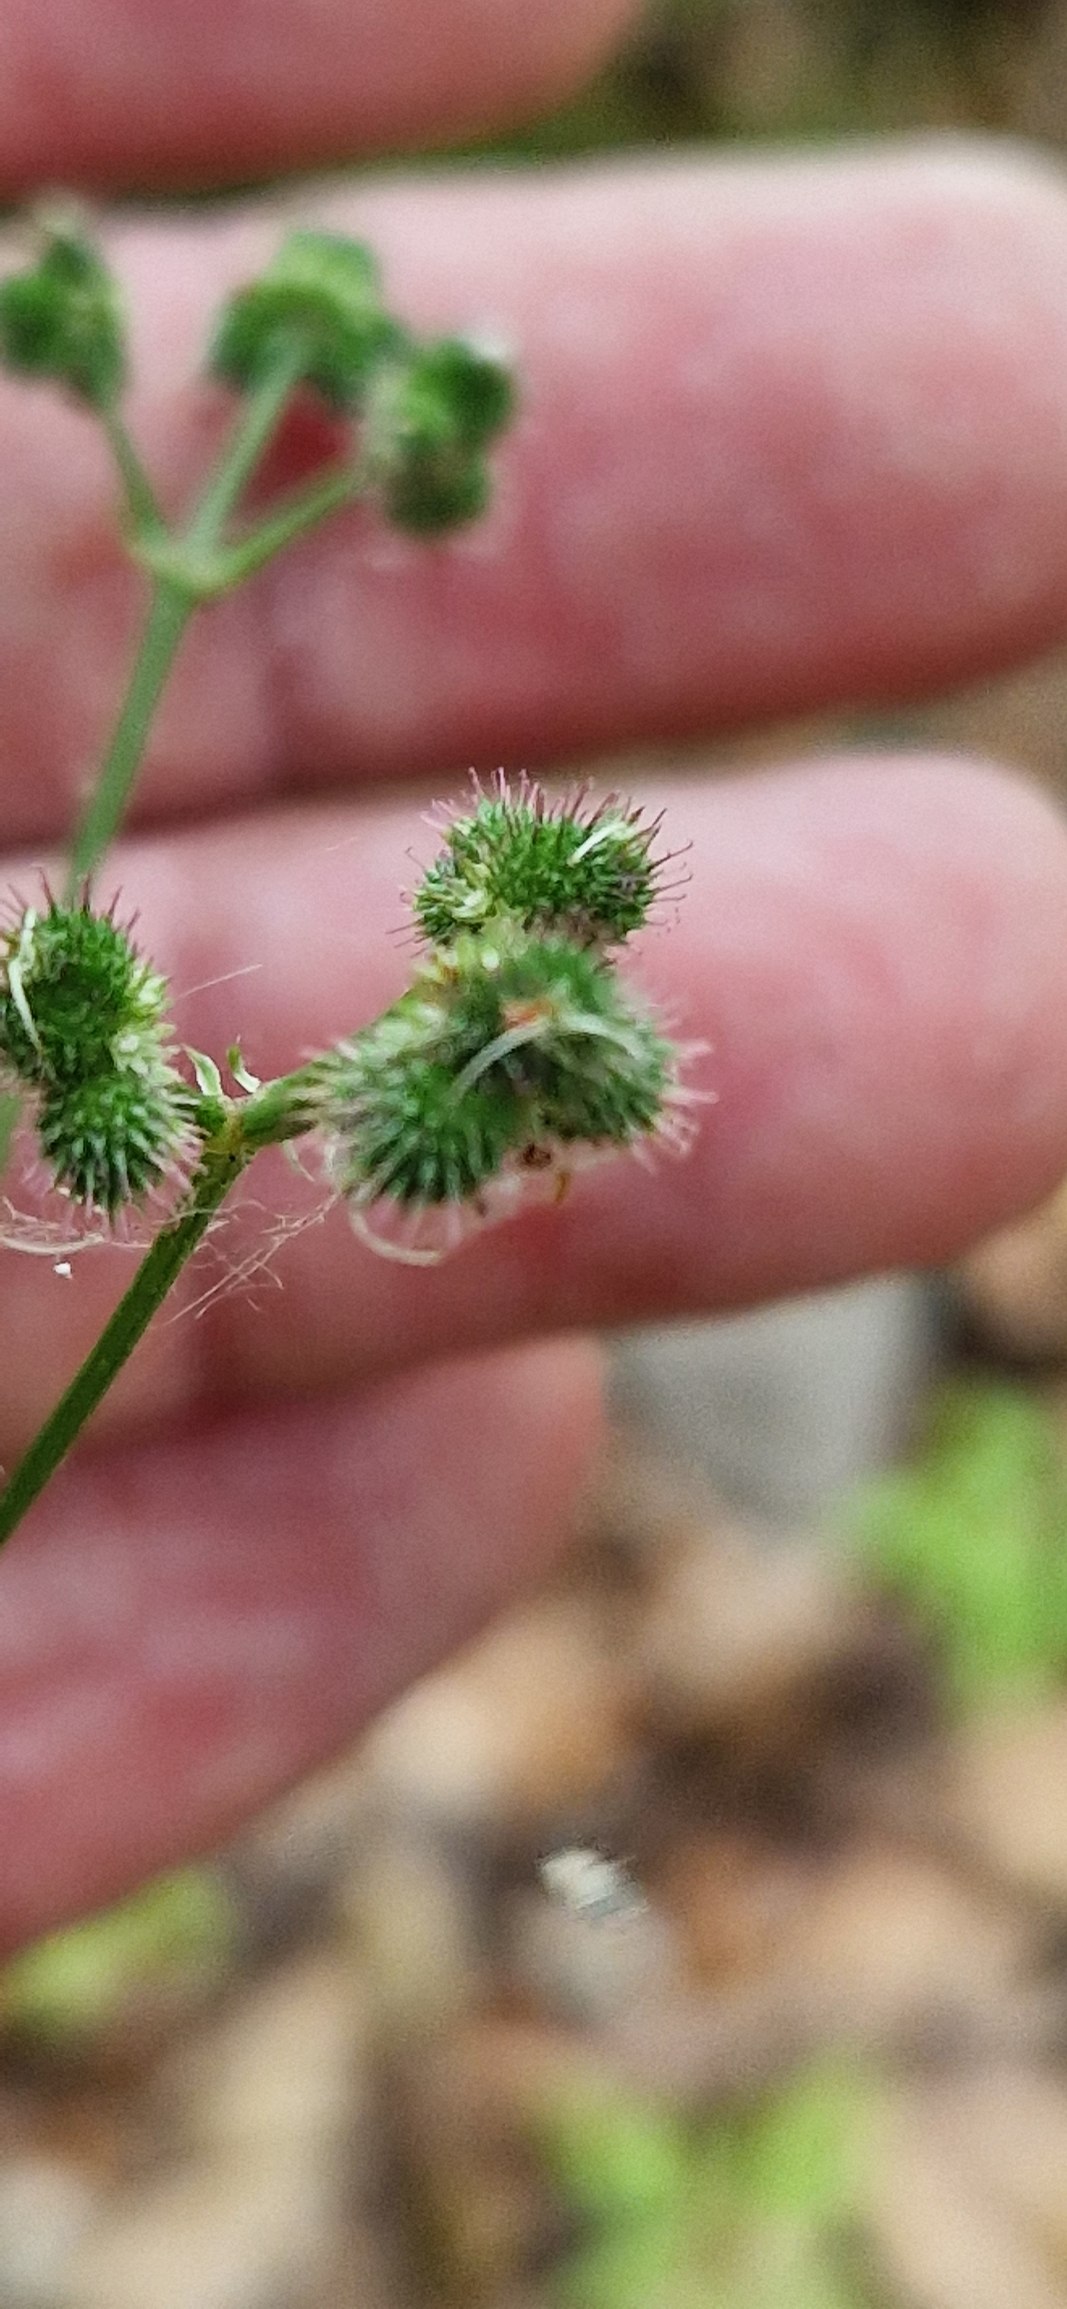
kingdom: Plantae
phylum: Tracheophyta
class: Magnoliopsida
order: Apiales
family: Apiaceae
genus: Sanicula
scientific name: Sanicula europaea
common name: Sanikel
